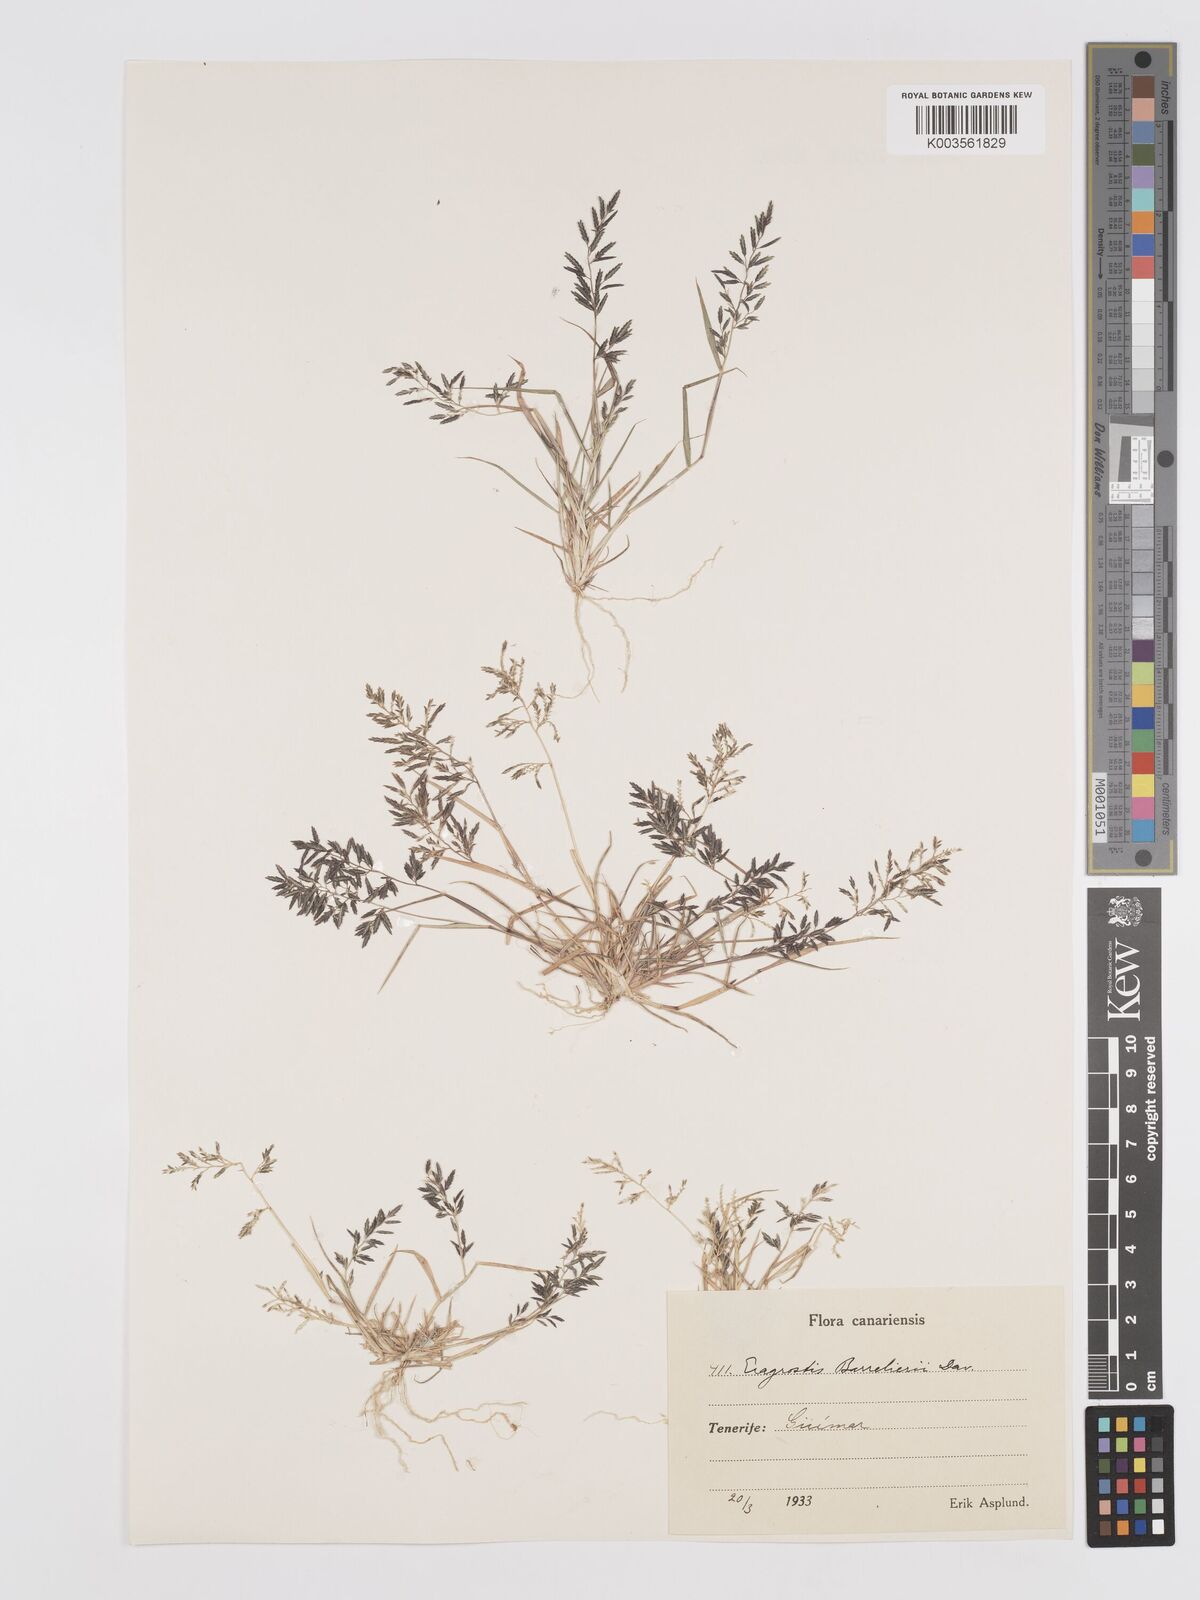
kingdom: Plantae
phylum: Tracheophyta
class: Liliopsida
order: Poales
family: Poaceae
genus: Eragrostis
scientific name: Eragrostis barrelieri
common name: Mediterranean lovegrass
